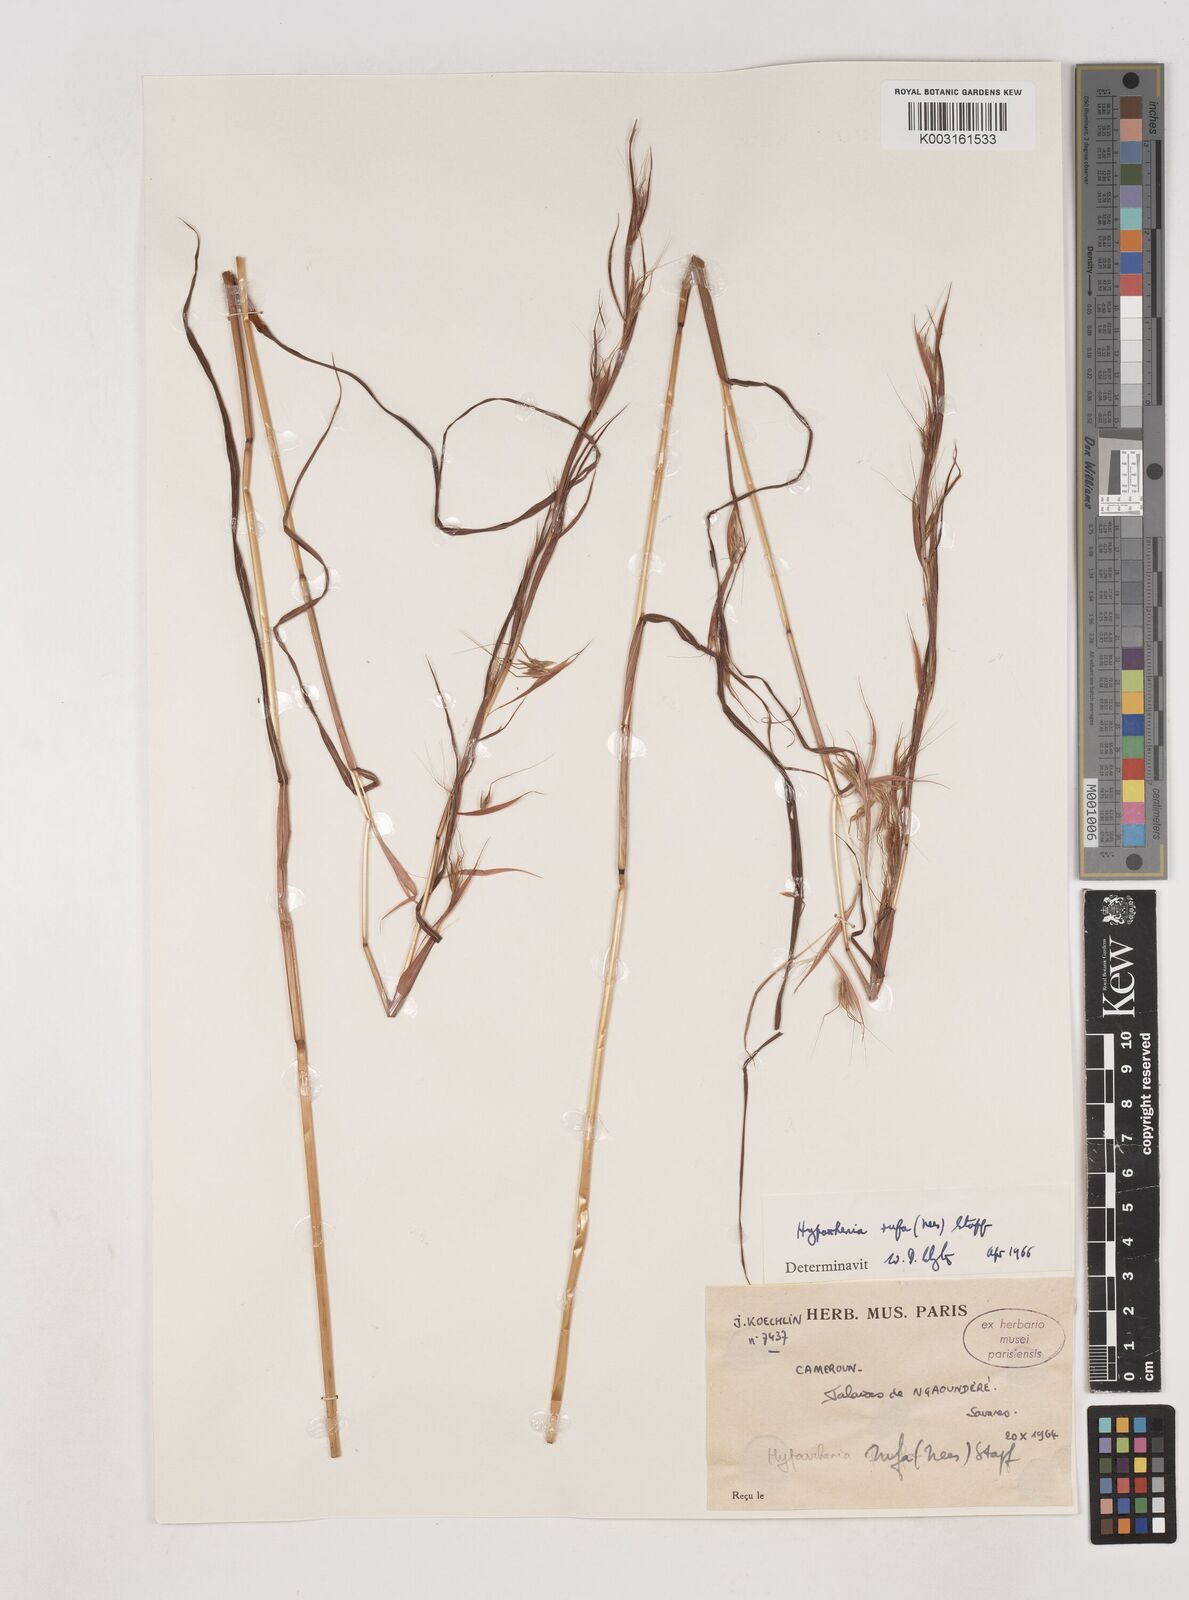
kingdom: Plantae
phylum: Tracheophyta
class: Liliopsida
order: Poales
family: Poaceae
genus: Hyparrhenia
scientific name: Hyparrhenia rufa
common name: Jaraguagrass
